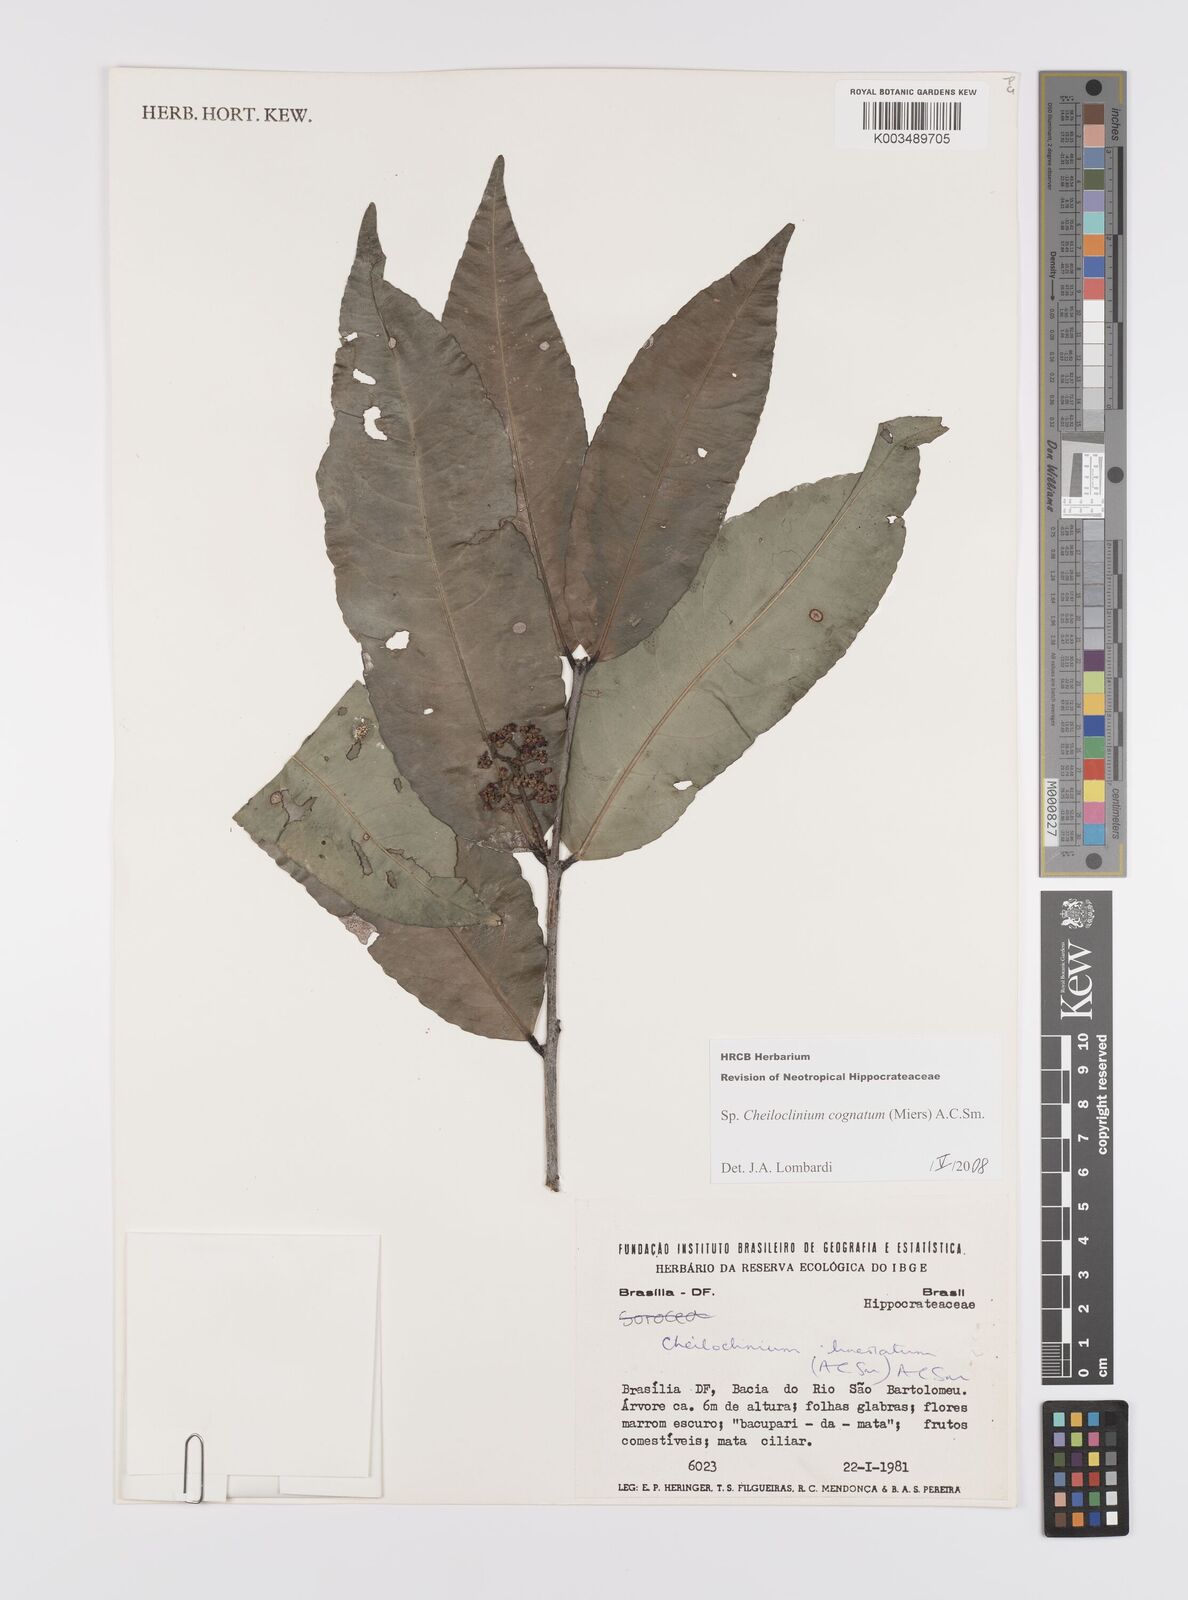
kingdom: Plantae
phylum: Tracheophyta
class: Magnoliopsida
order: Celastrales
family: Celastraceae
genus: Cheiloclinium
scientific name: Cheiloclinium cognatum
